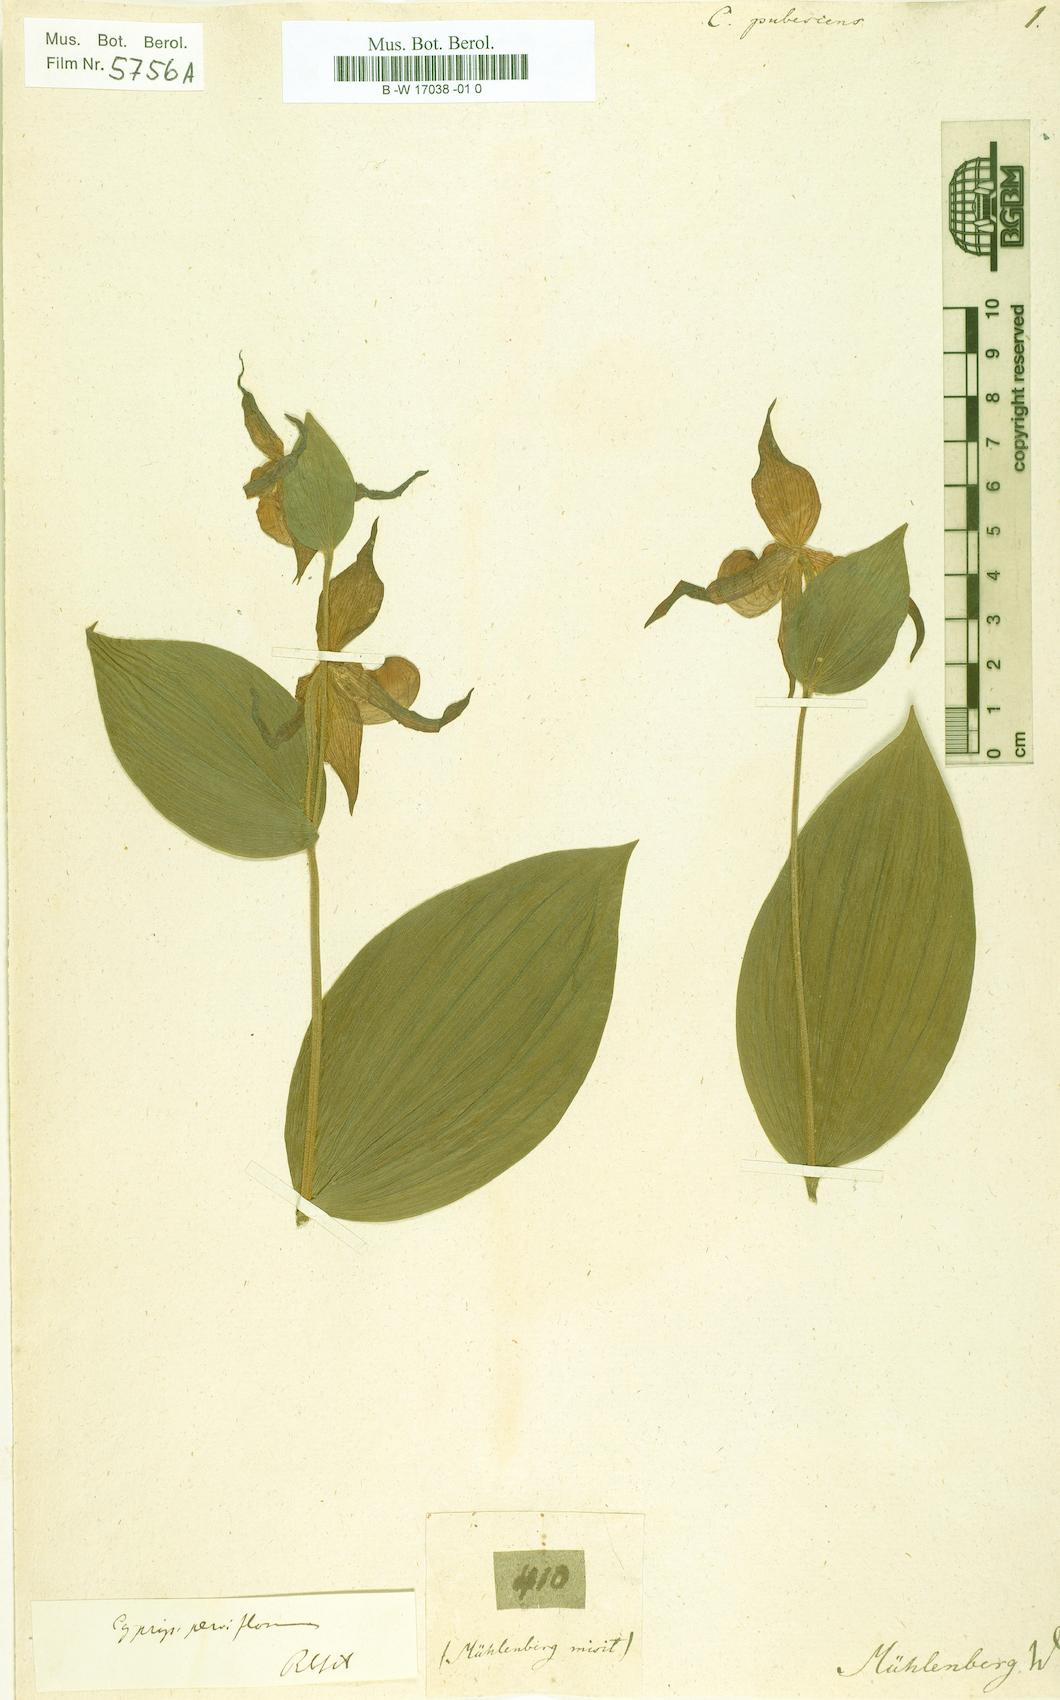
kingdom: Plantae
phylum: Tracheophyta
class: Liliopsida
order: Asparagales
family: Orchidaceae
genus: Cypripedium
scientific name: Cypripedium parviflorum
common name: American yellow lady's-slipper
